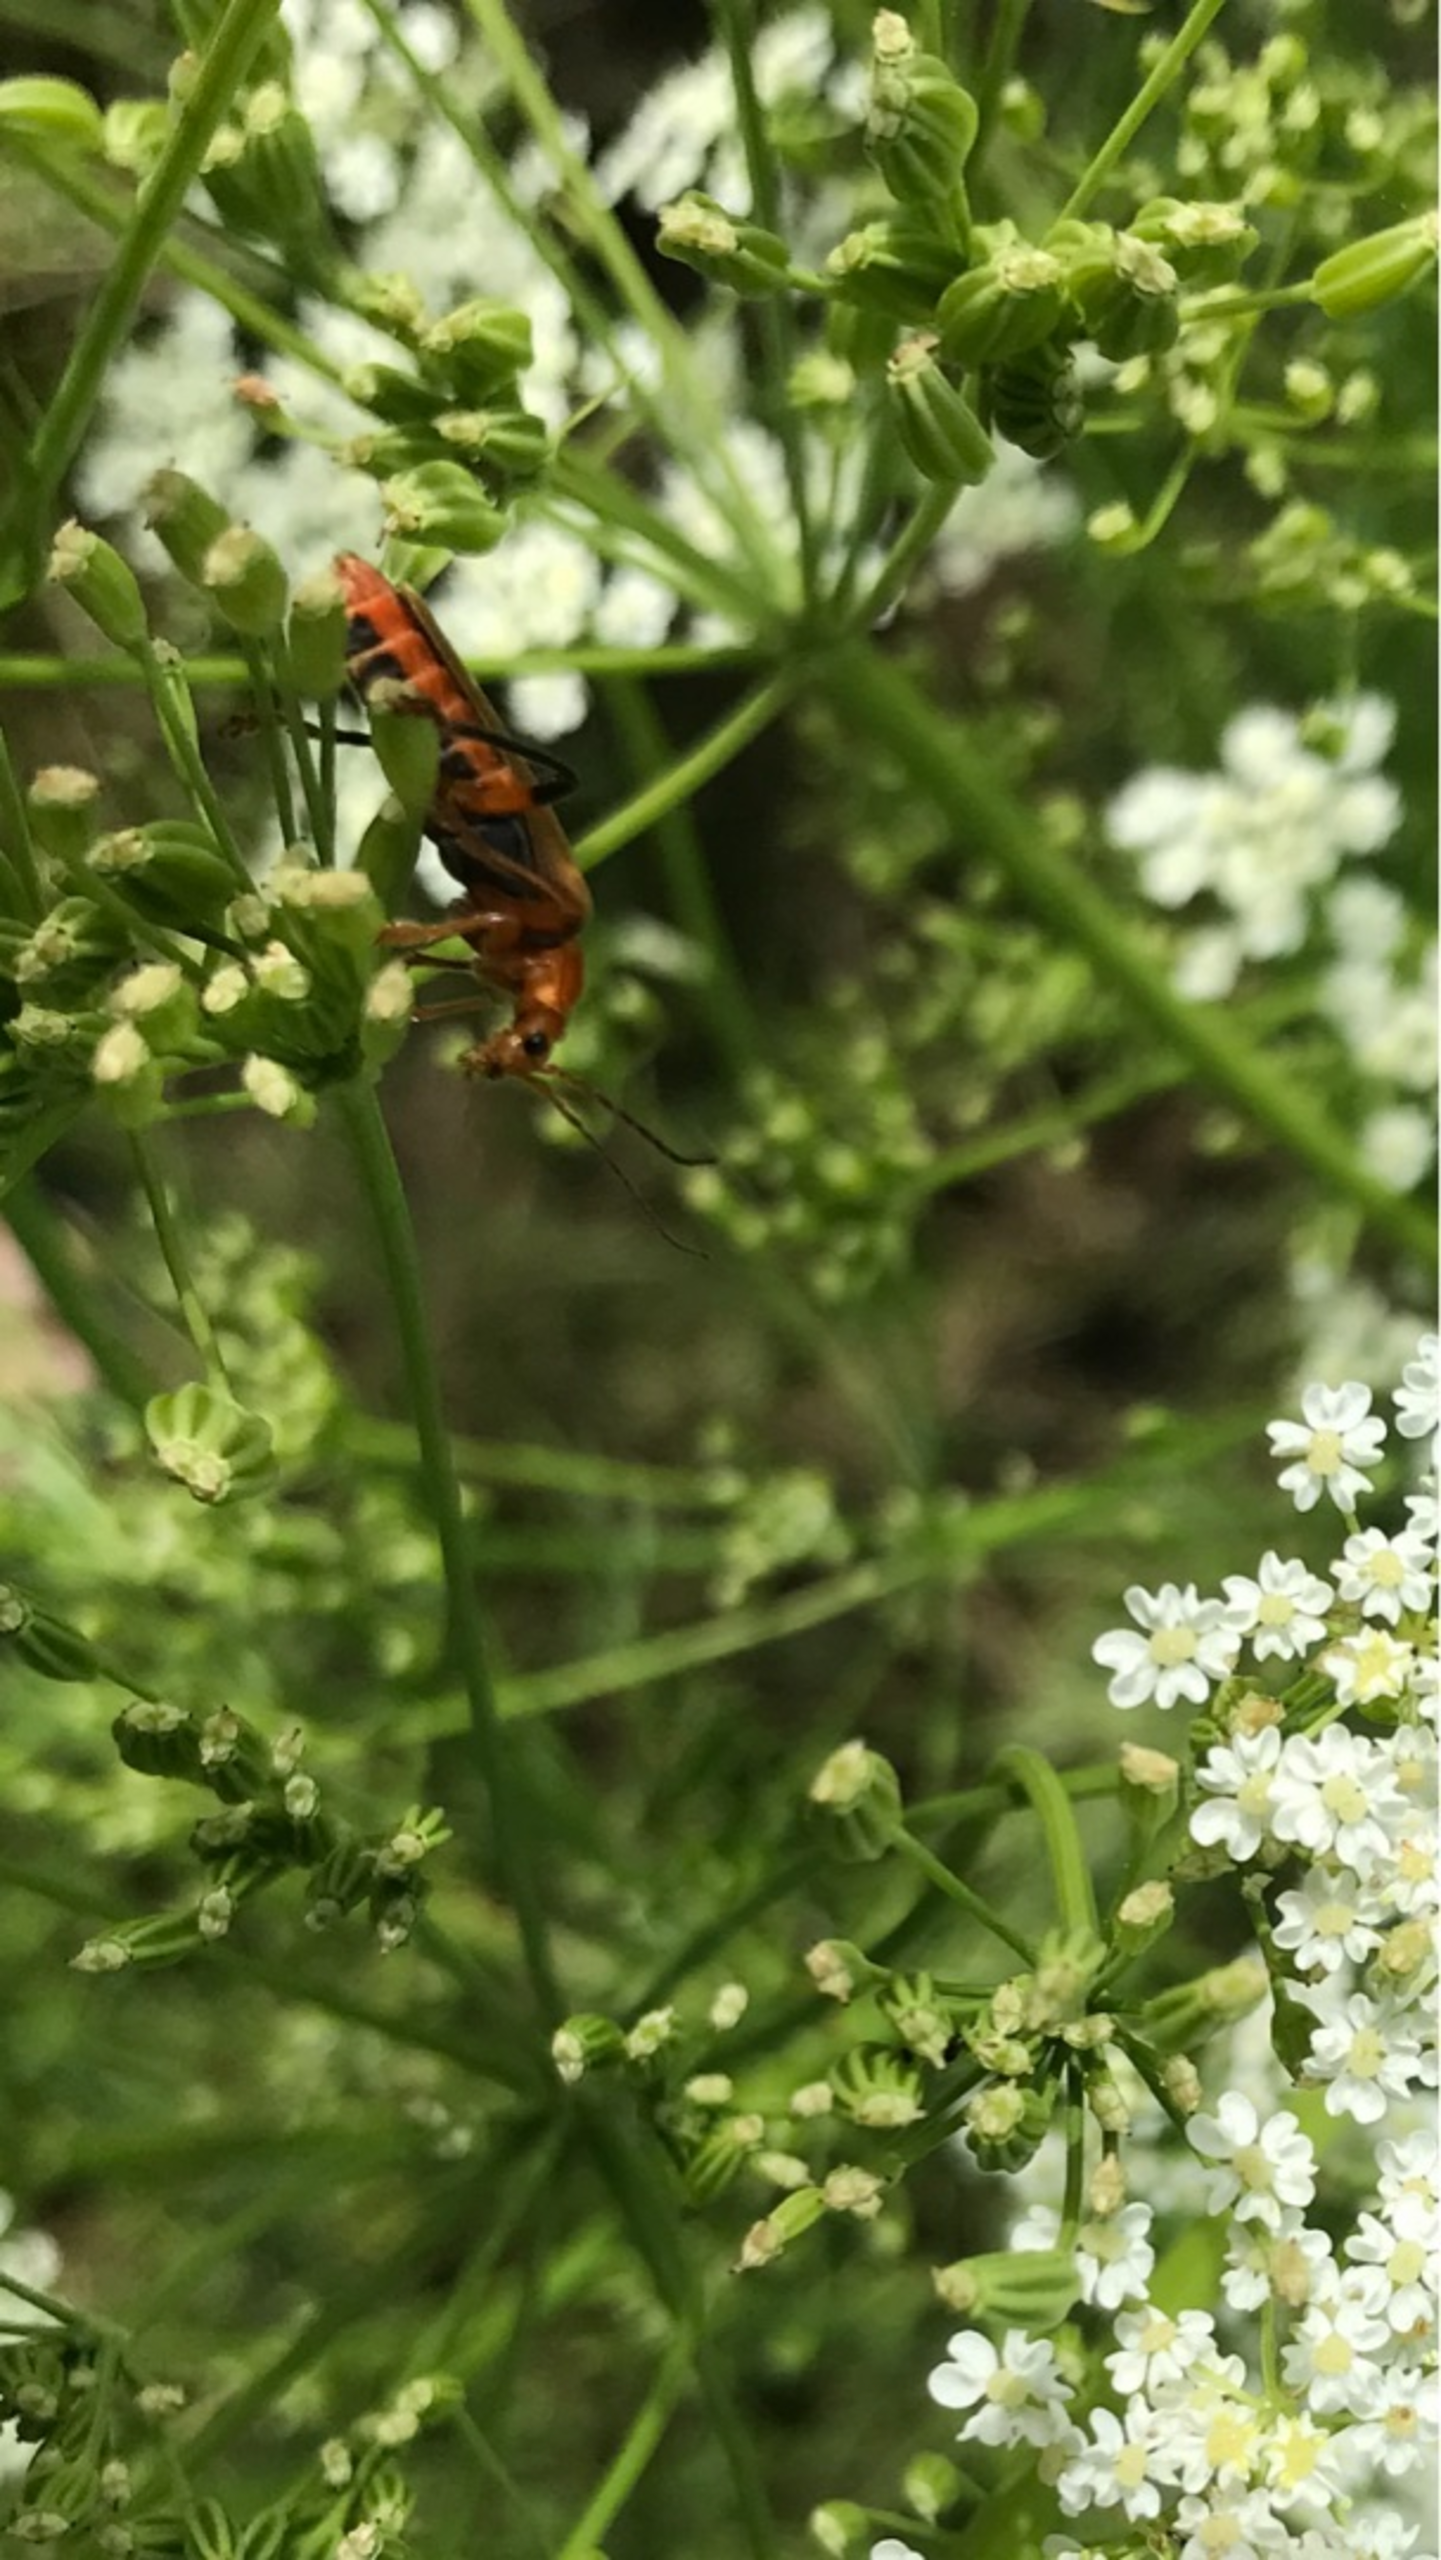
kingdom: Animalia
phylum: Arthropoda
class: Insecta
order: Coleoptera
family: Cantharidae
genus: Cantharis
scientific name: Cantharis livida
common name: Gul blødvinge
